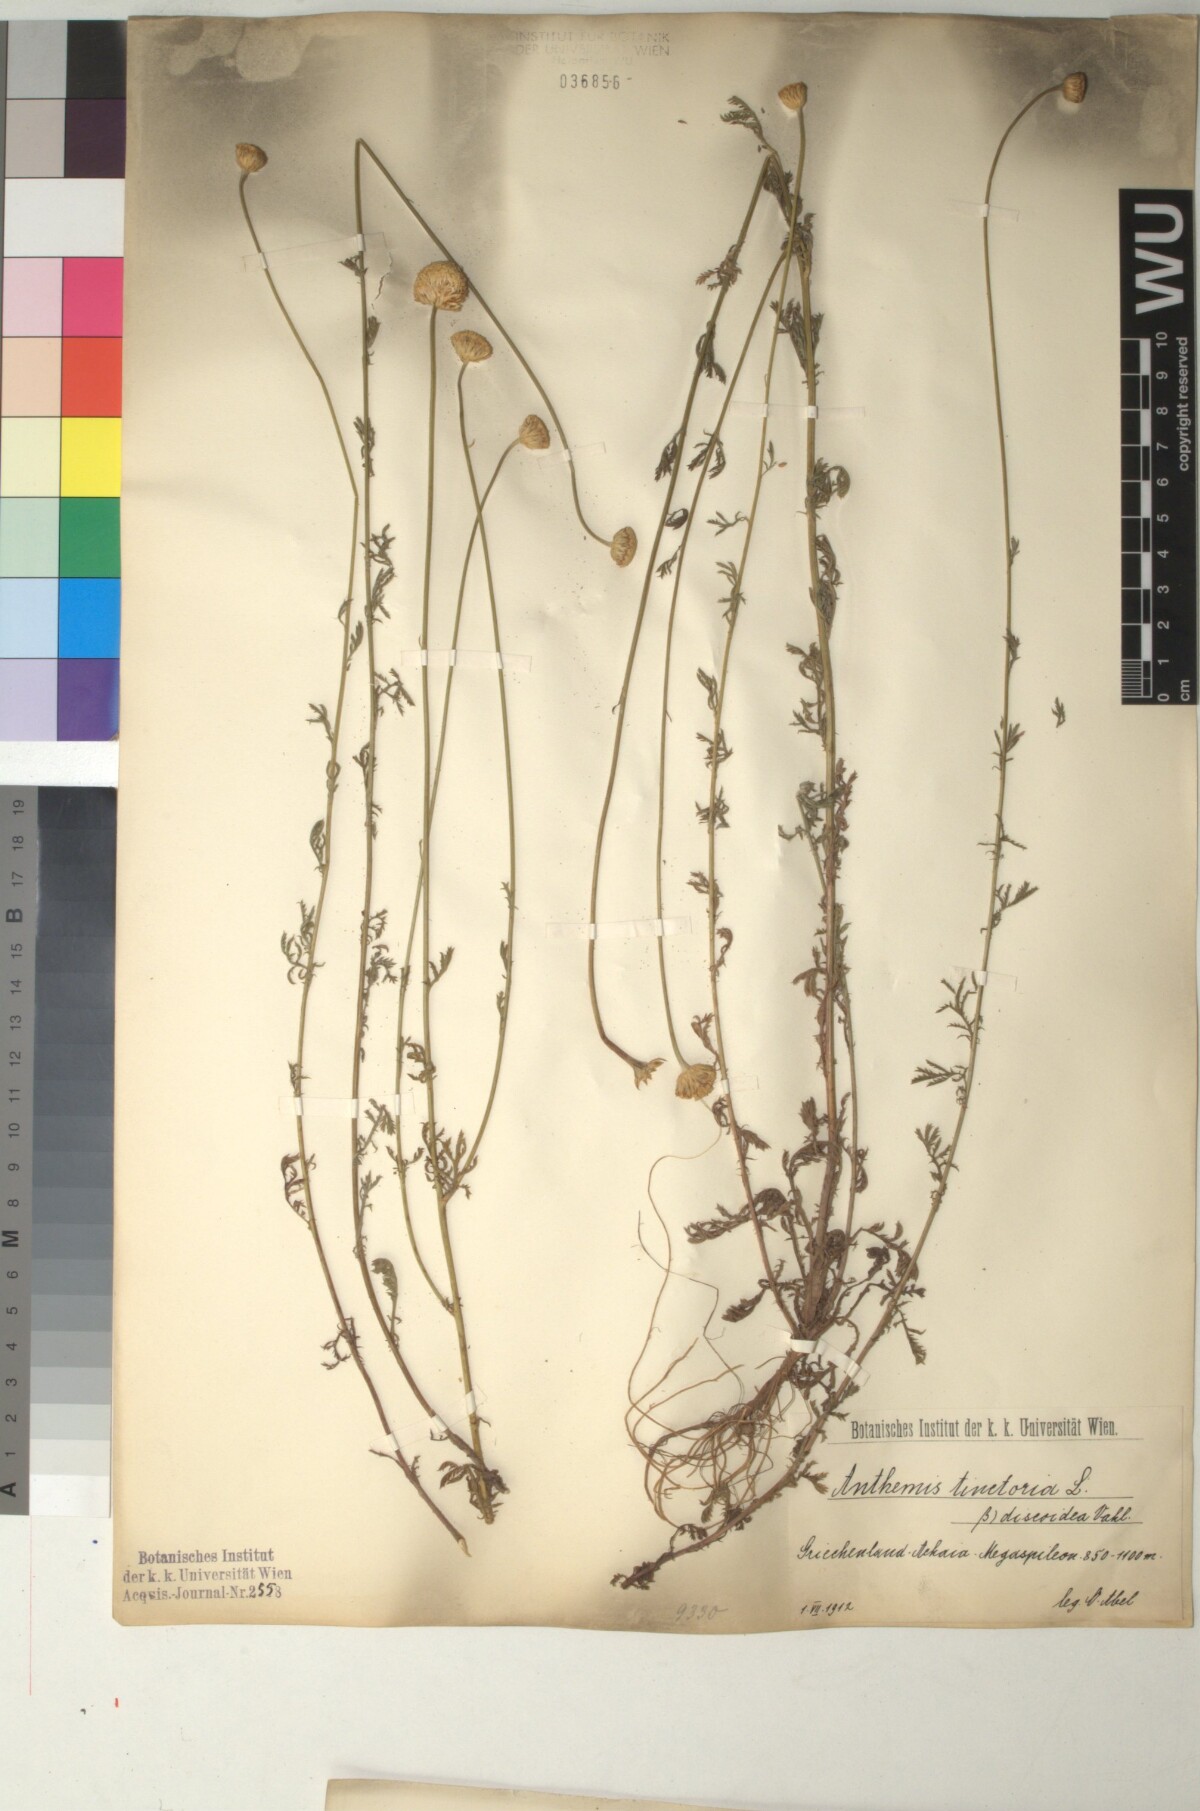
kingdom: Plantae
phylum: Tracheophyta
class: Magnoliopsida
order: Asterales
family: Asteraceae
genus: Cota
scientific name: Cota tinctoria
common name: Golden chamomile
